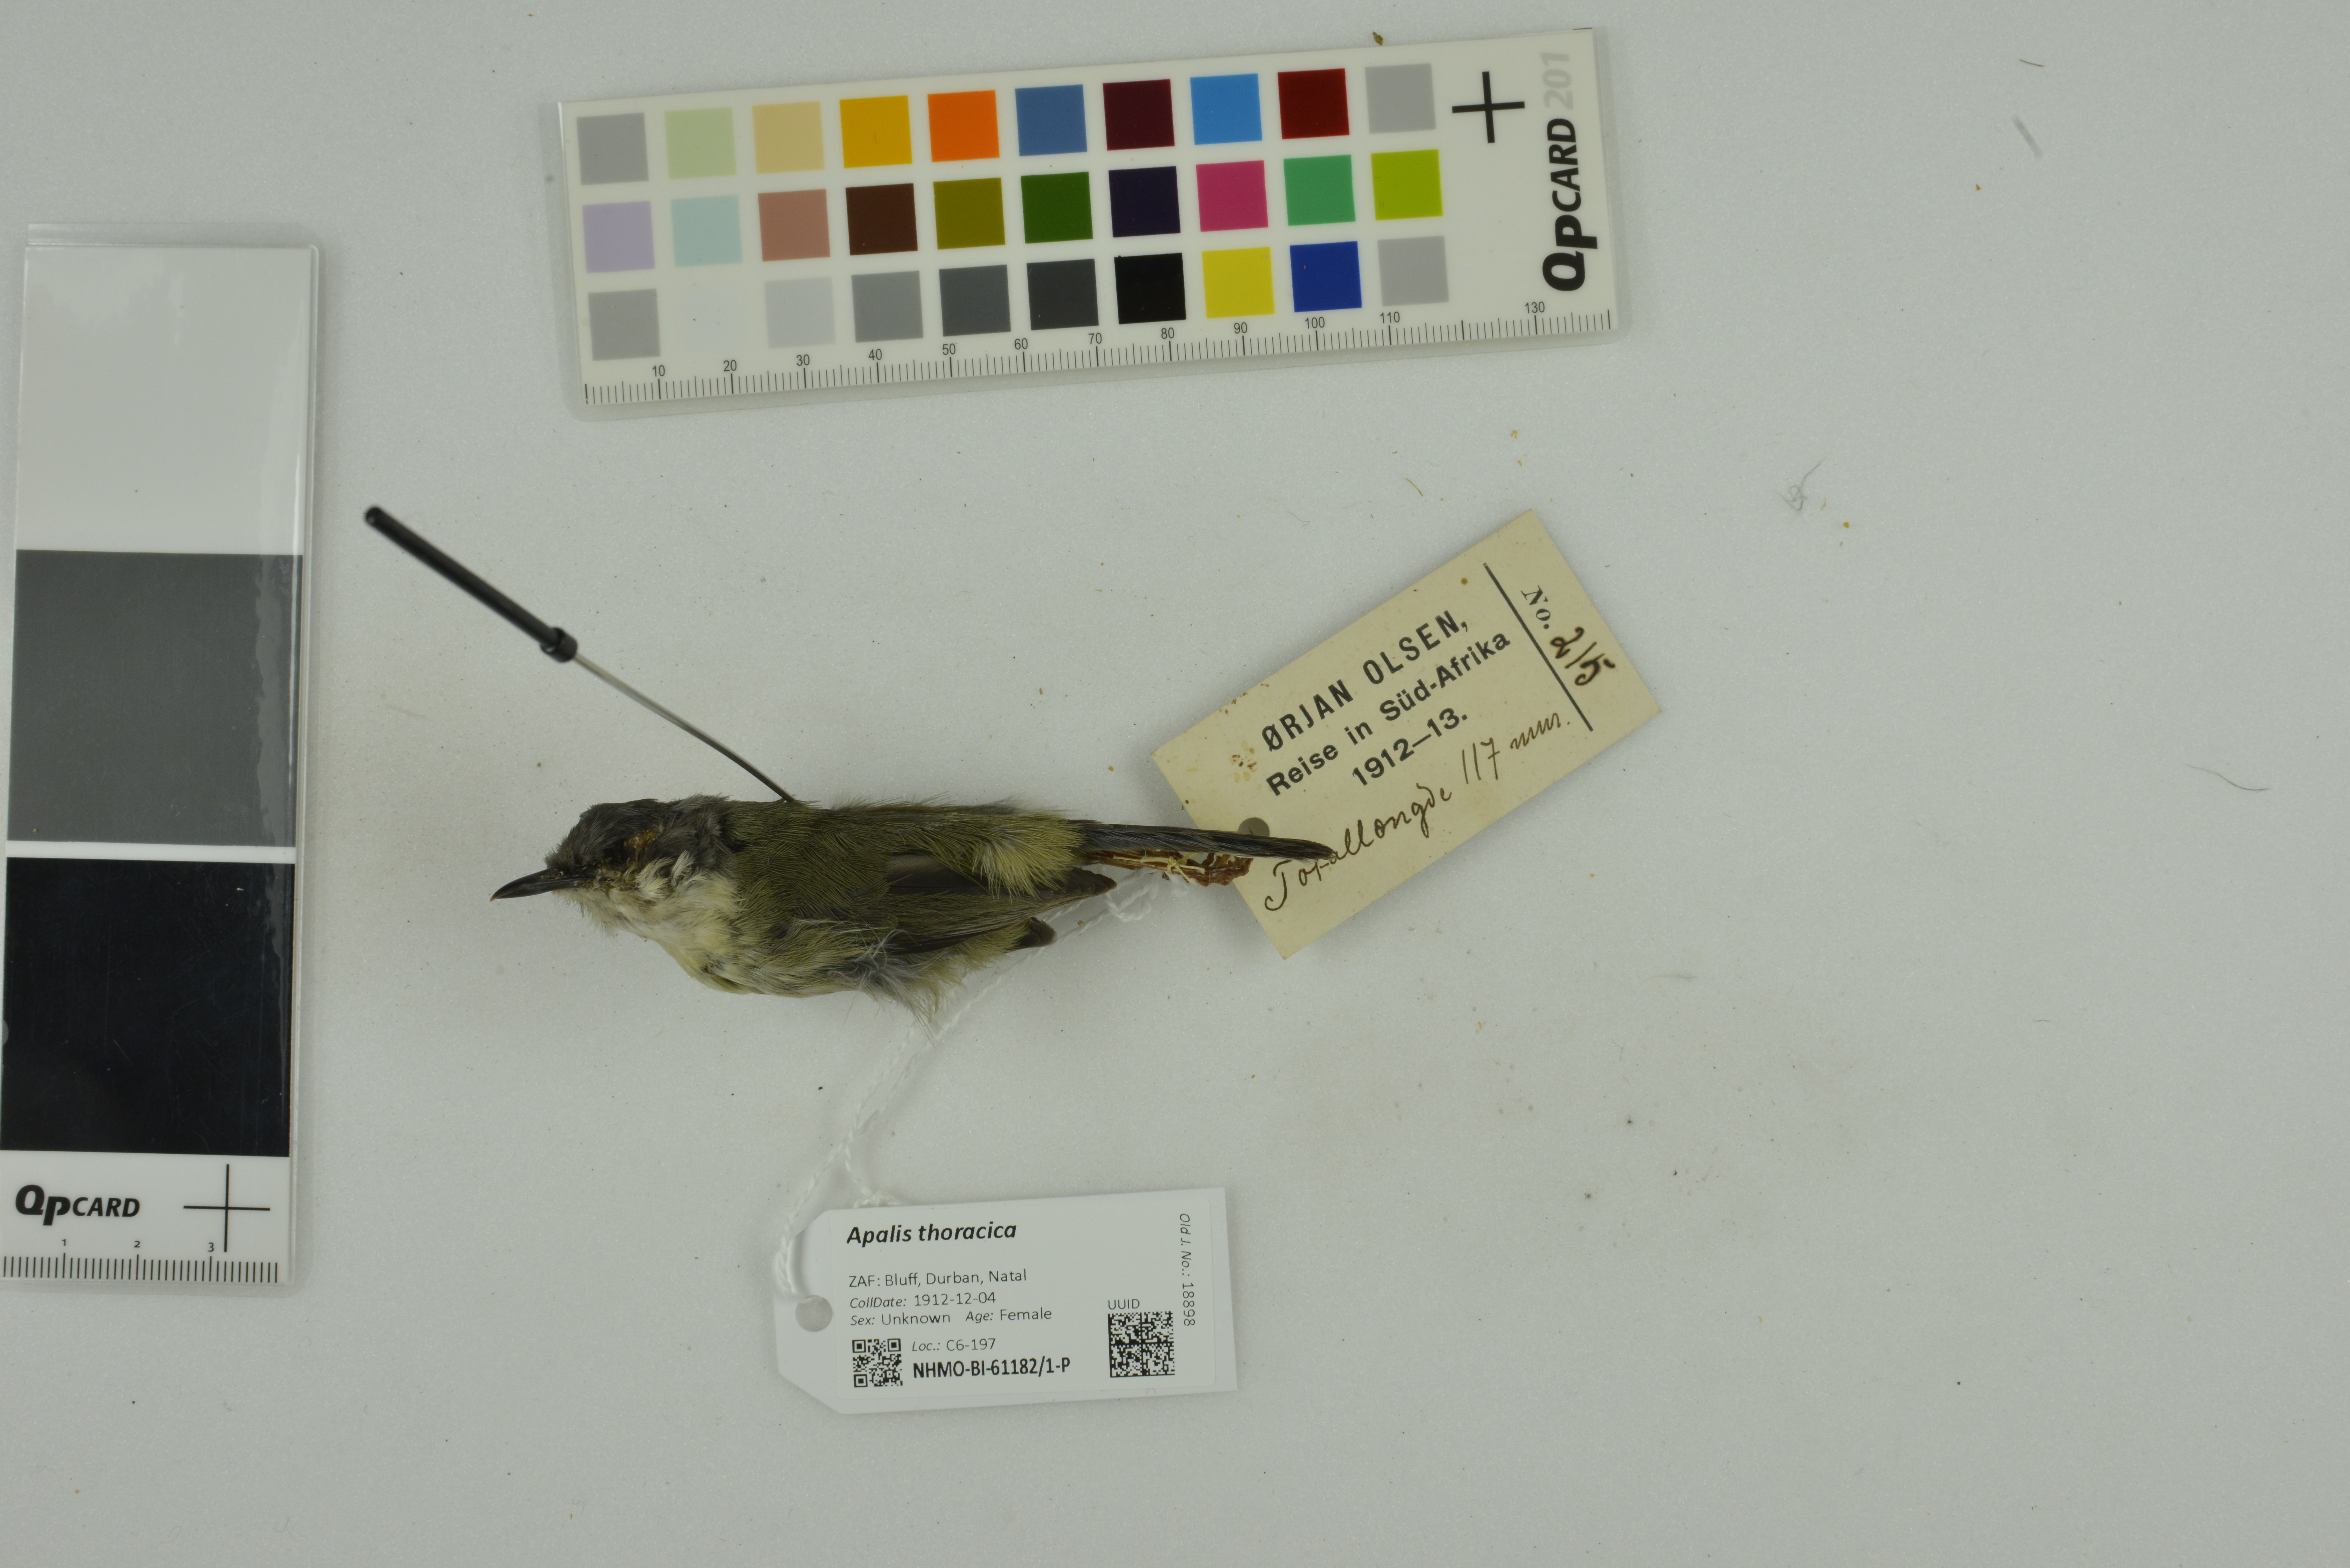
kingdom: Animalia
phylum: Chordata
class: Aves
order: Passeriformes
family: Cisticolidae
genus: Apalis
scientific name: Apalis thoracica
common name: Bar-throated apalis
